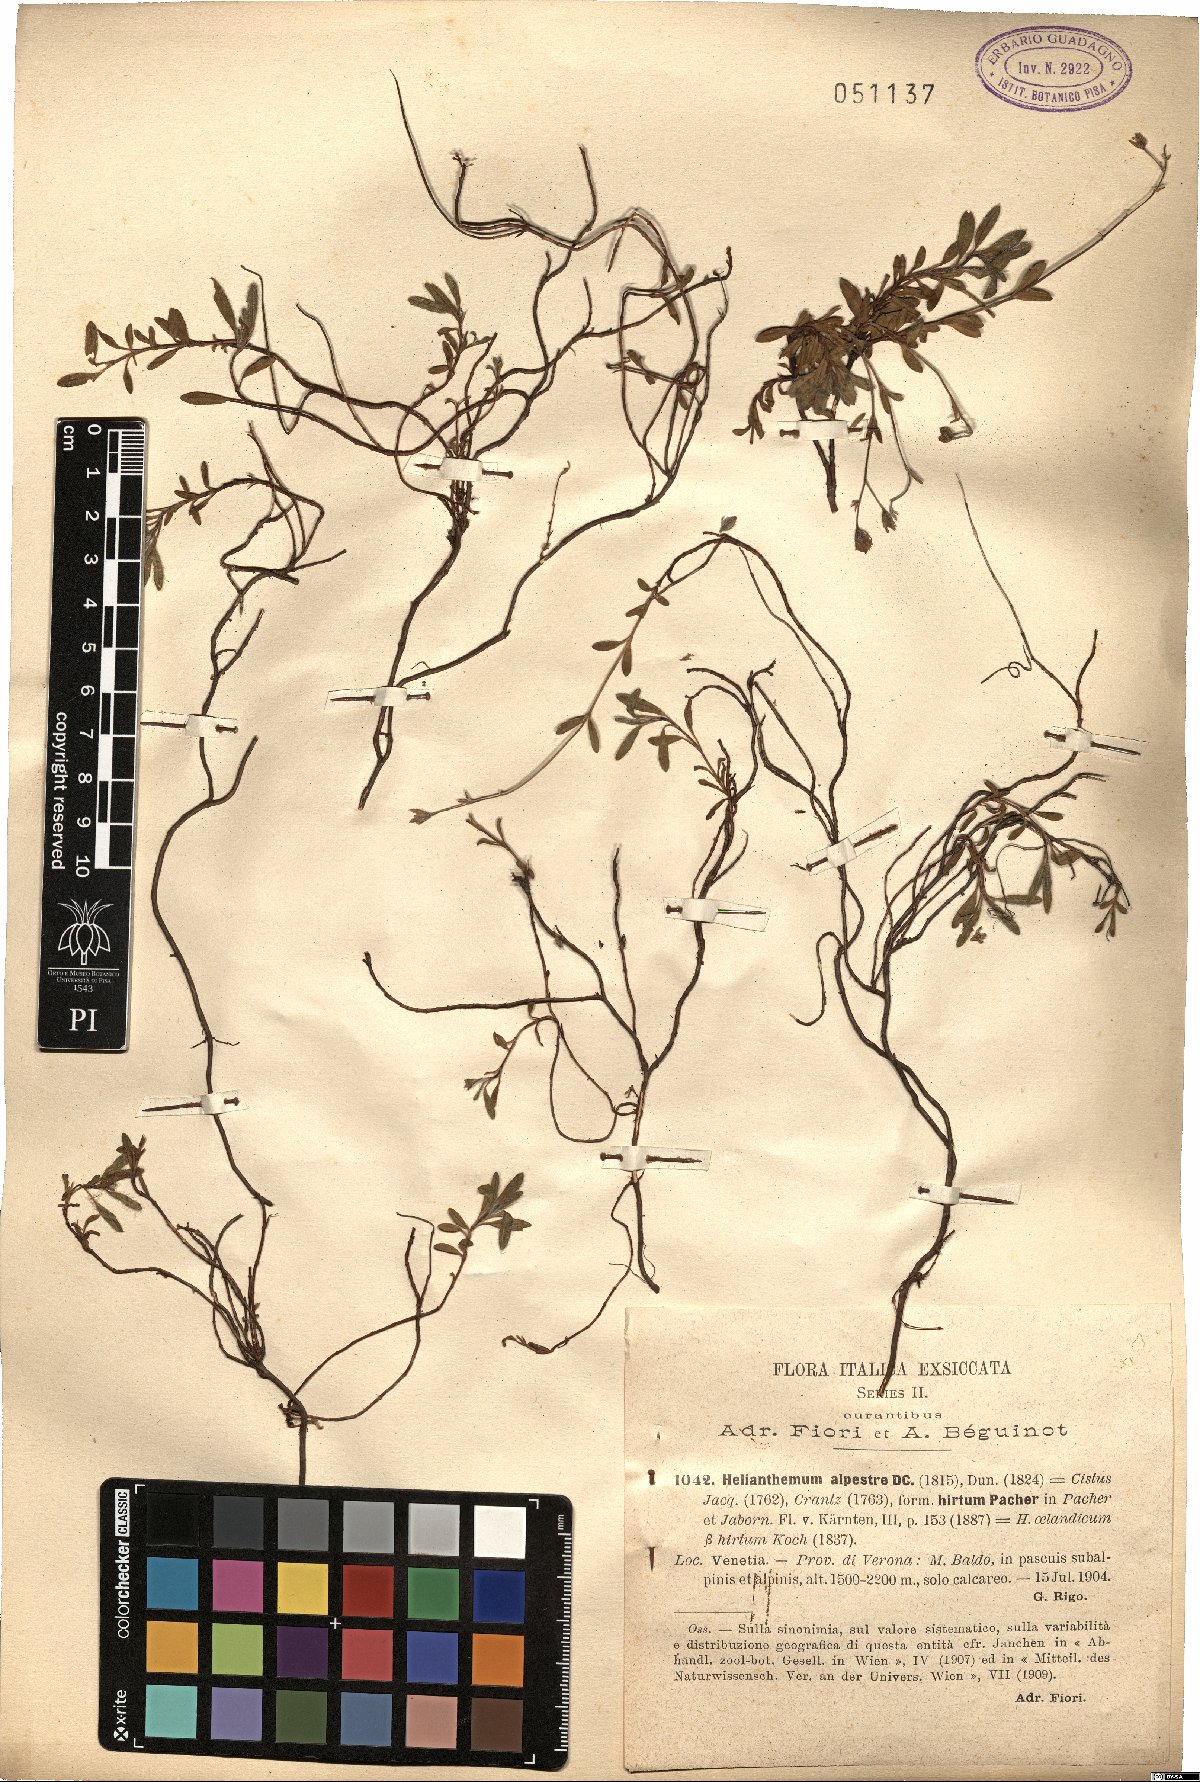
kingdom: Plantae
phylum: Tracheophyta
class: Magnoliopsida
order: Malvales
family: Cistaceae
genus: Helianthemum
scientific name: Helianthemum alpestre
